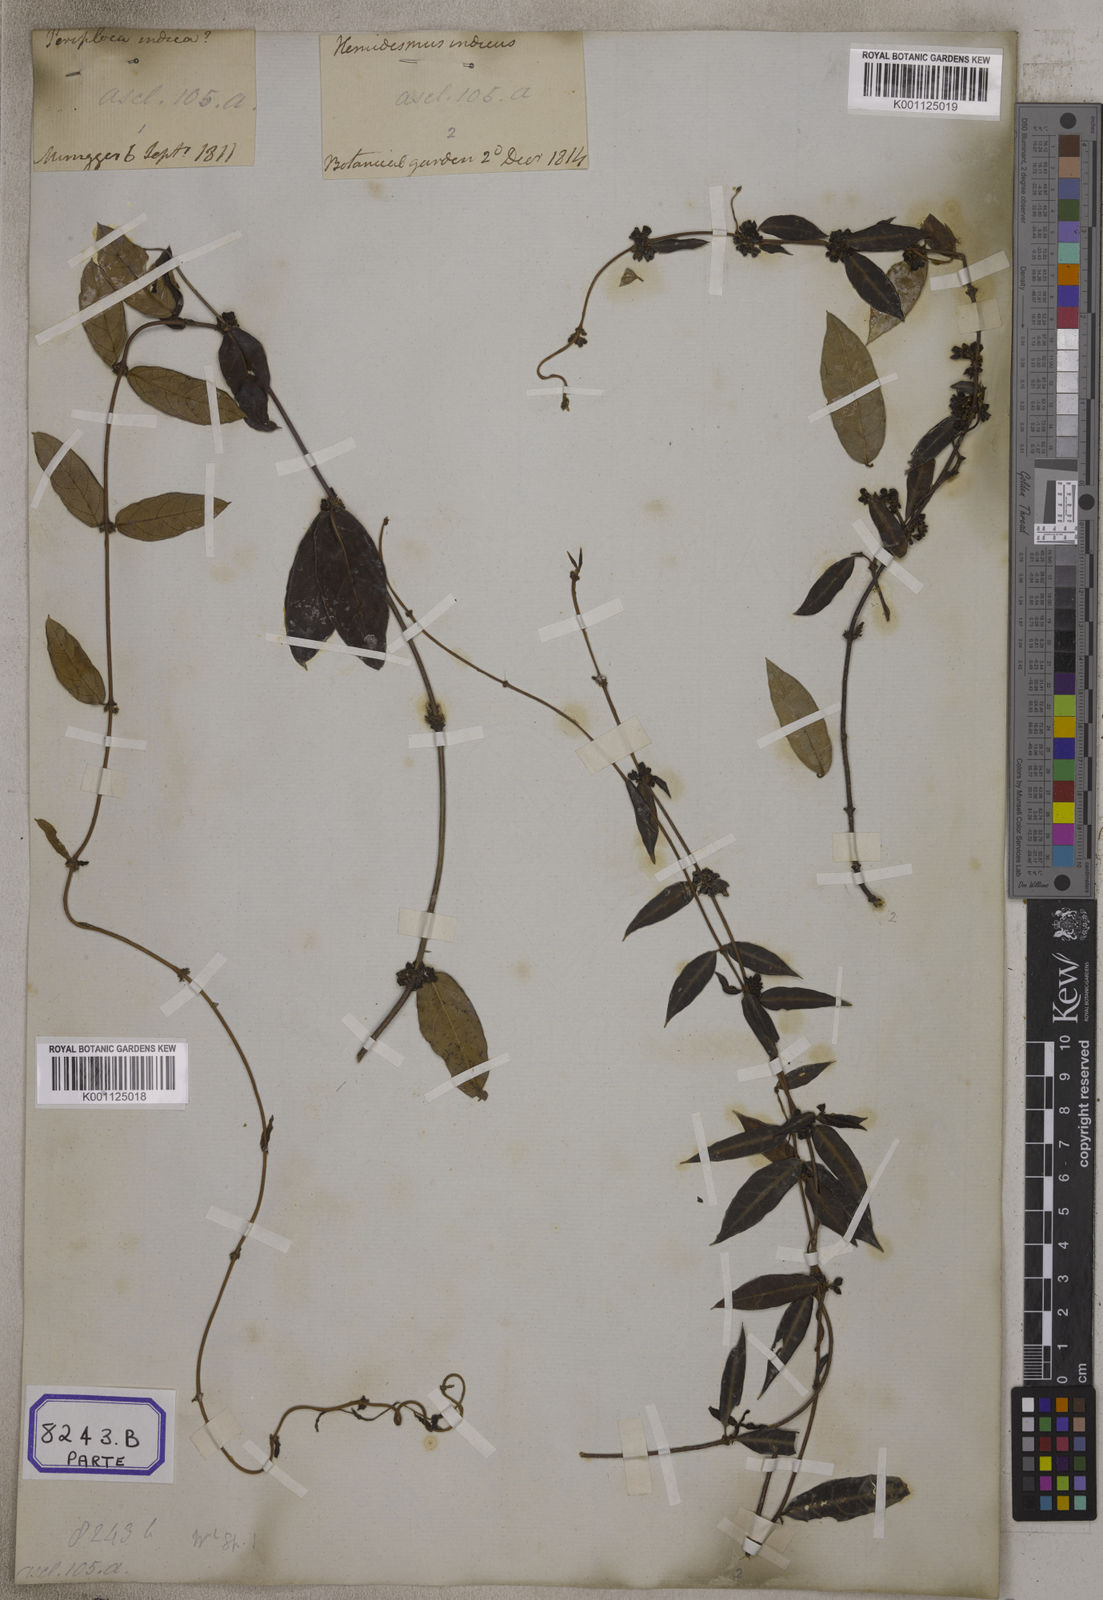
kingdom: Plantae
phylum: Tracheophyta
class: Magnoliopsida
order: Gentianales
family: Apocynaceae
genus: Hemidesmus
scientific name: Hemidesmus indicus
